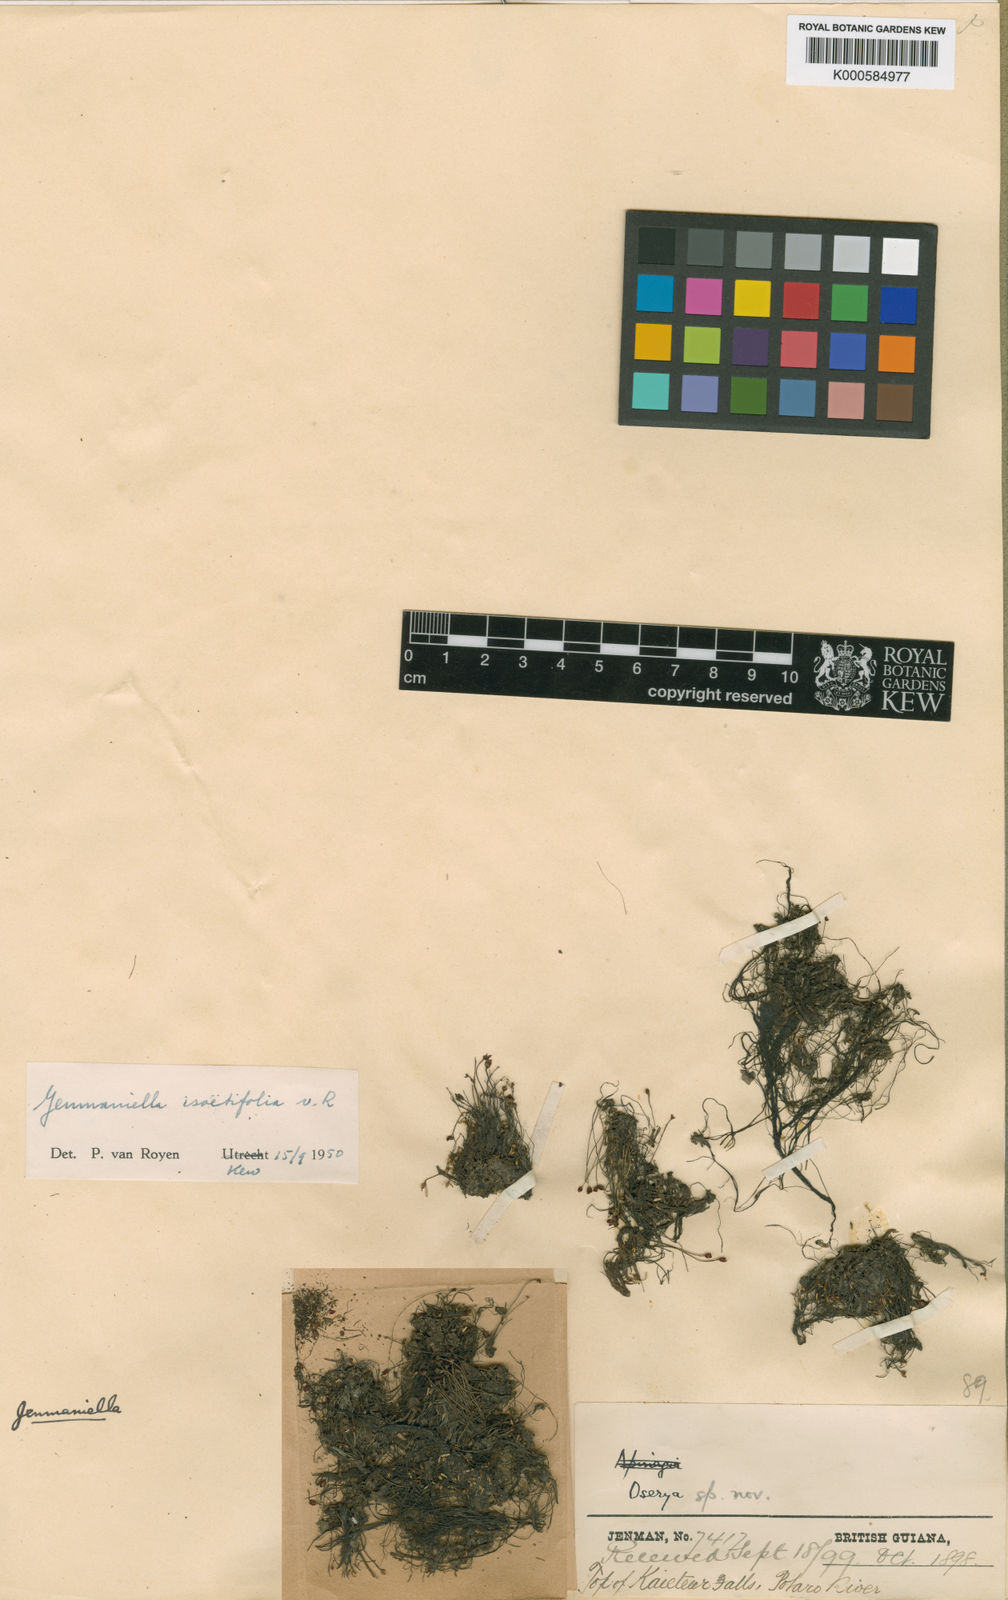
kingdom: Plantae
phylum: Tracheophyta
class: Magnoliopsida
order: Malpighiales
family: Podostemaceae
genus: Lophogyne
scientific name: Lophogyne isoetifolia
